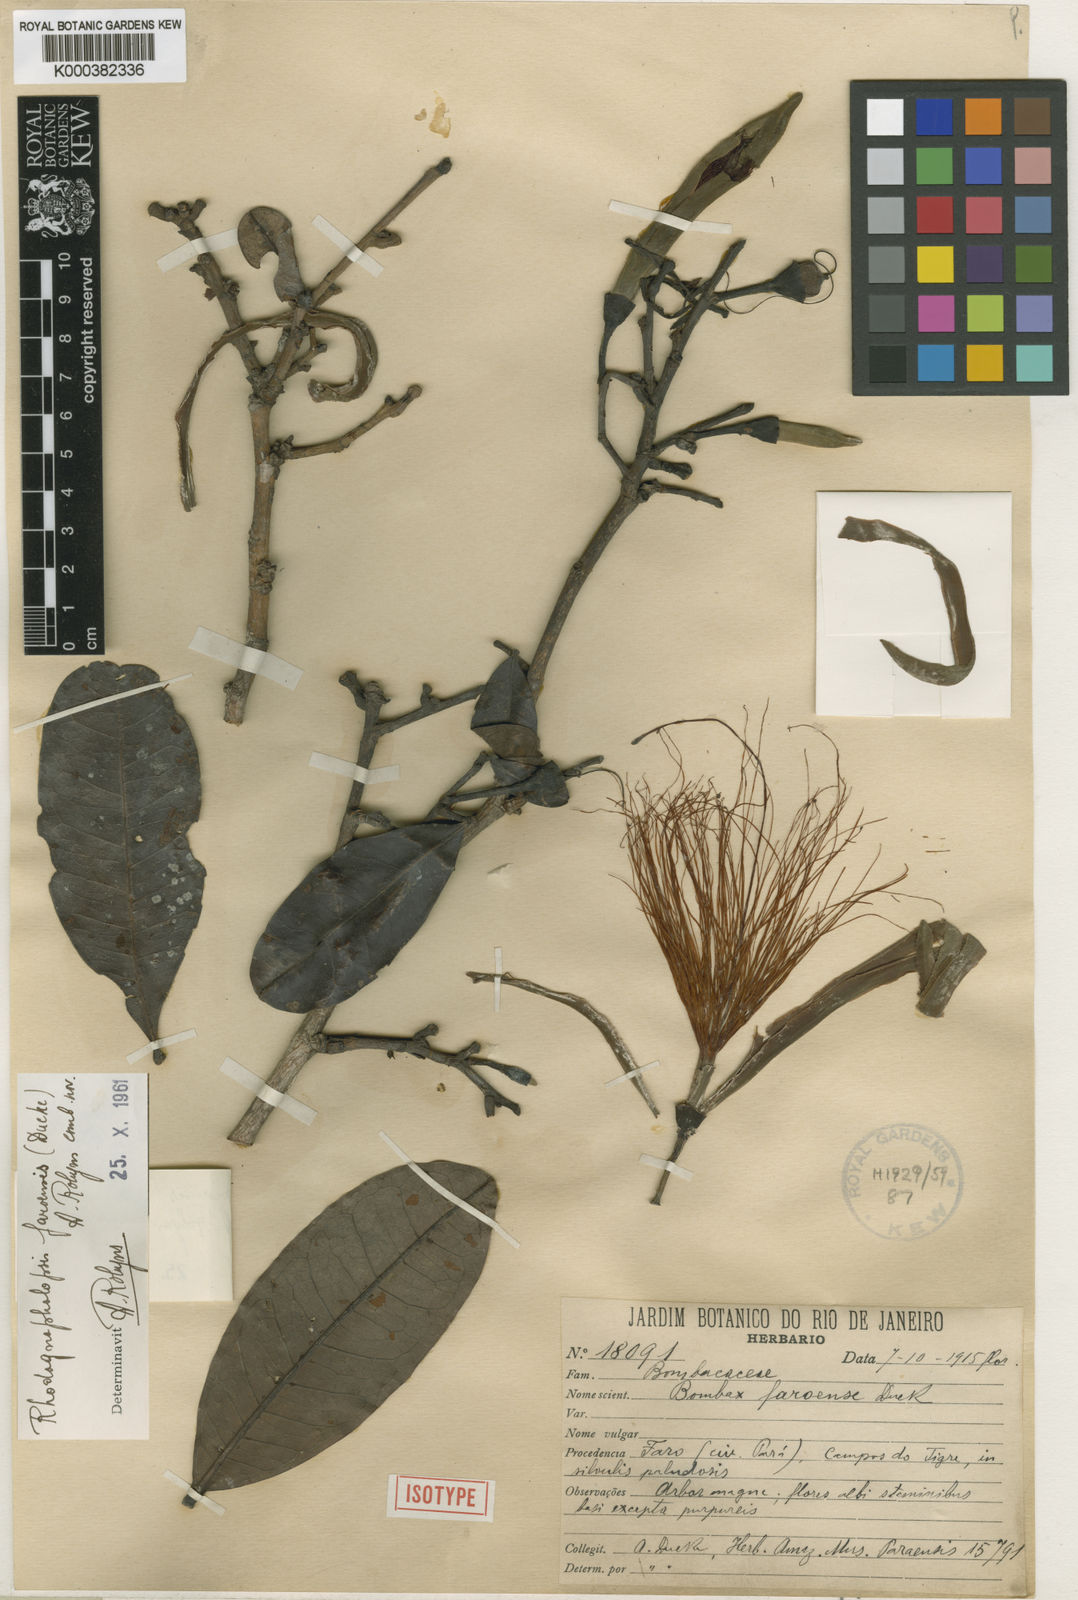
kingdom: Plantae
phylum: Tracheophyta
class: Magnoliopsida
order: Malvales
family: Malvaceae
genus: Pachira
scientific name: Pachira faroensis
